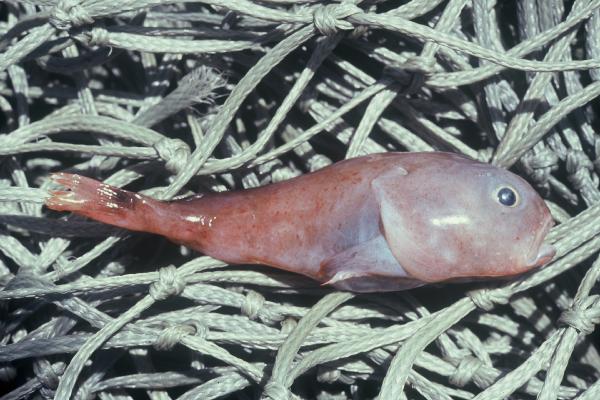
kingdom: Animalia
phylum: Chordata
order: Scorpaeniformes
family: Psychrolutidae
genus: Psychrolutes
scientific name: Psychrolutes macrocephalus
